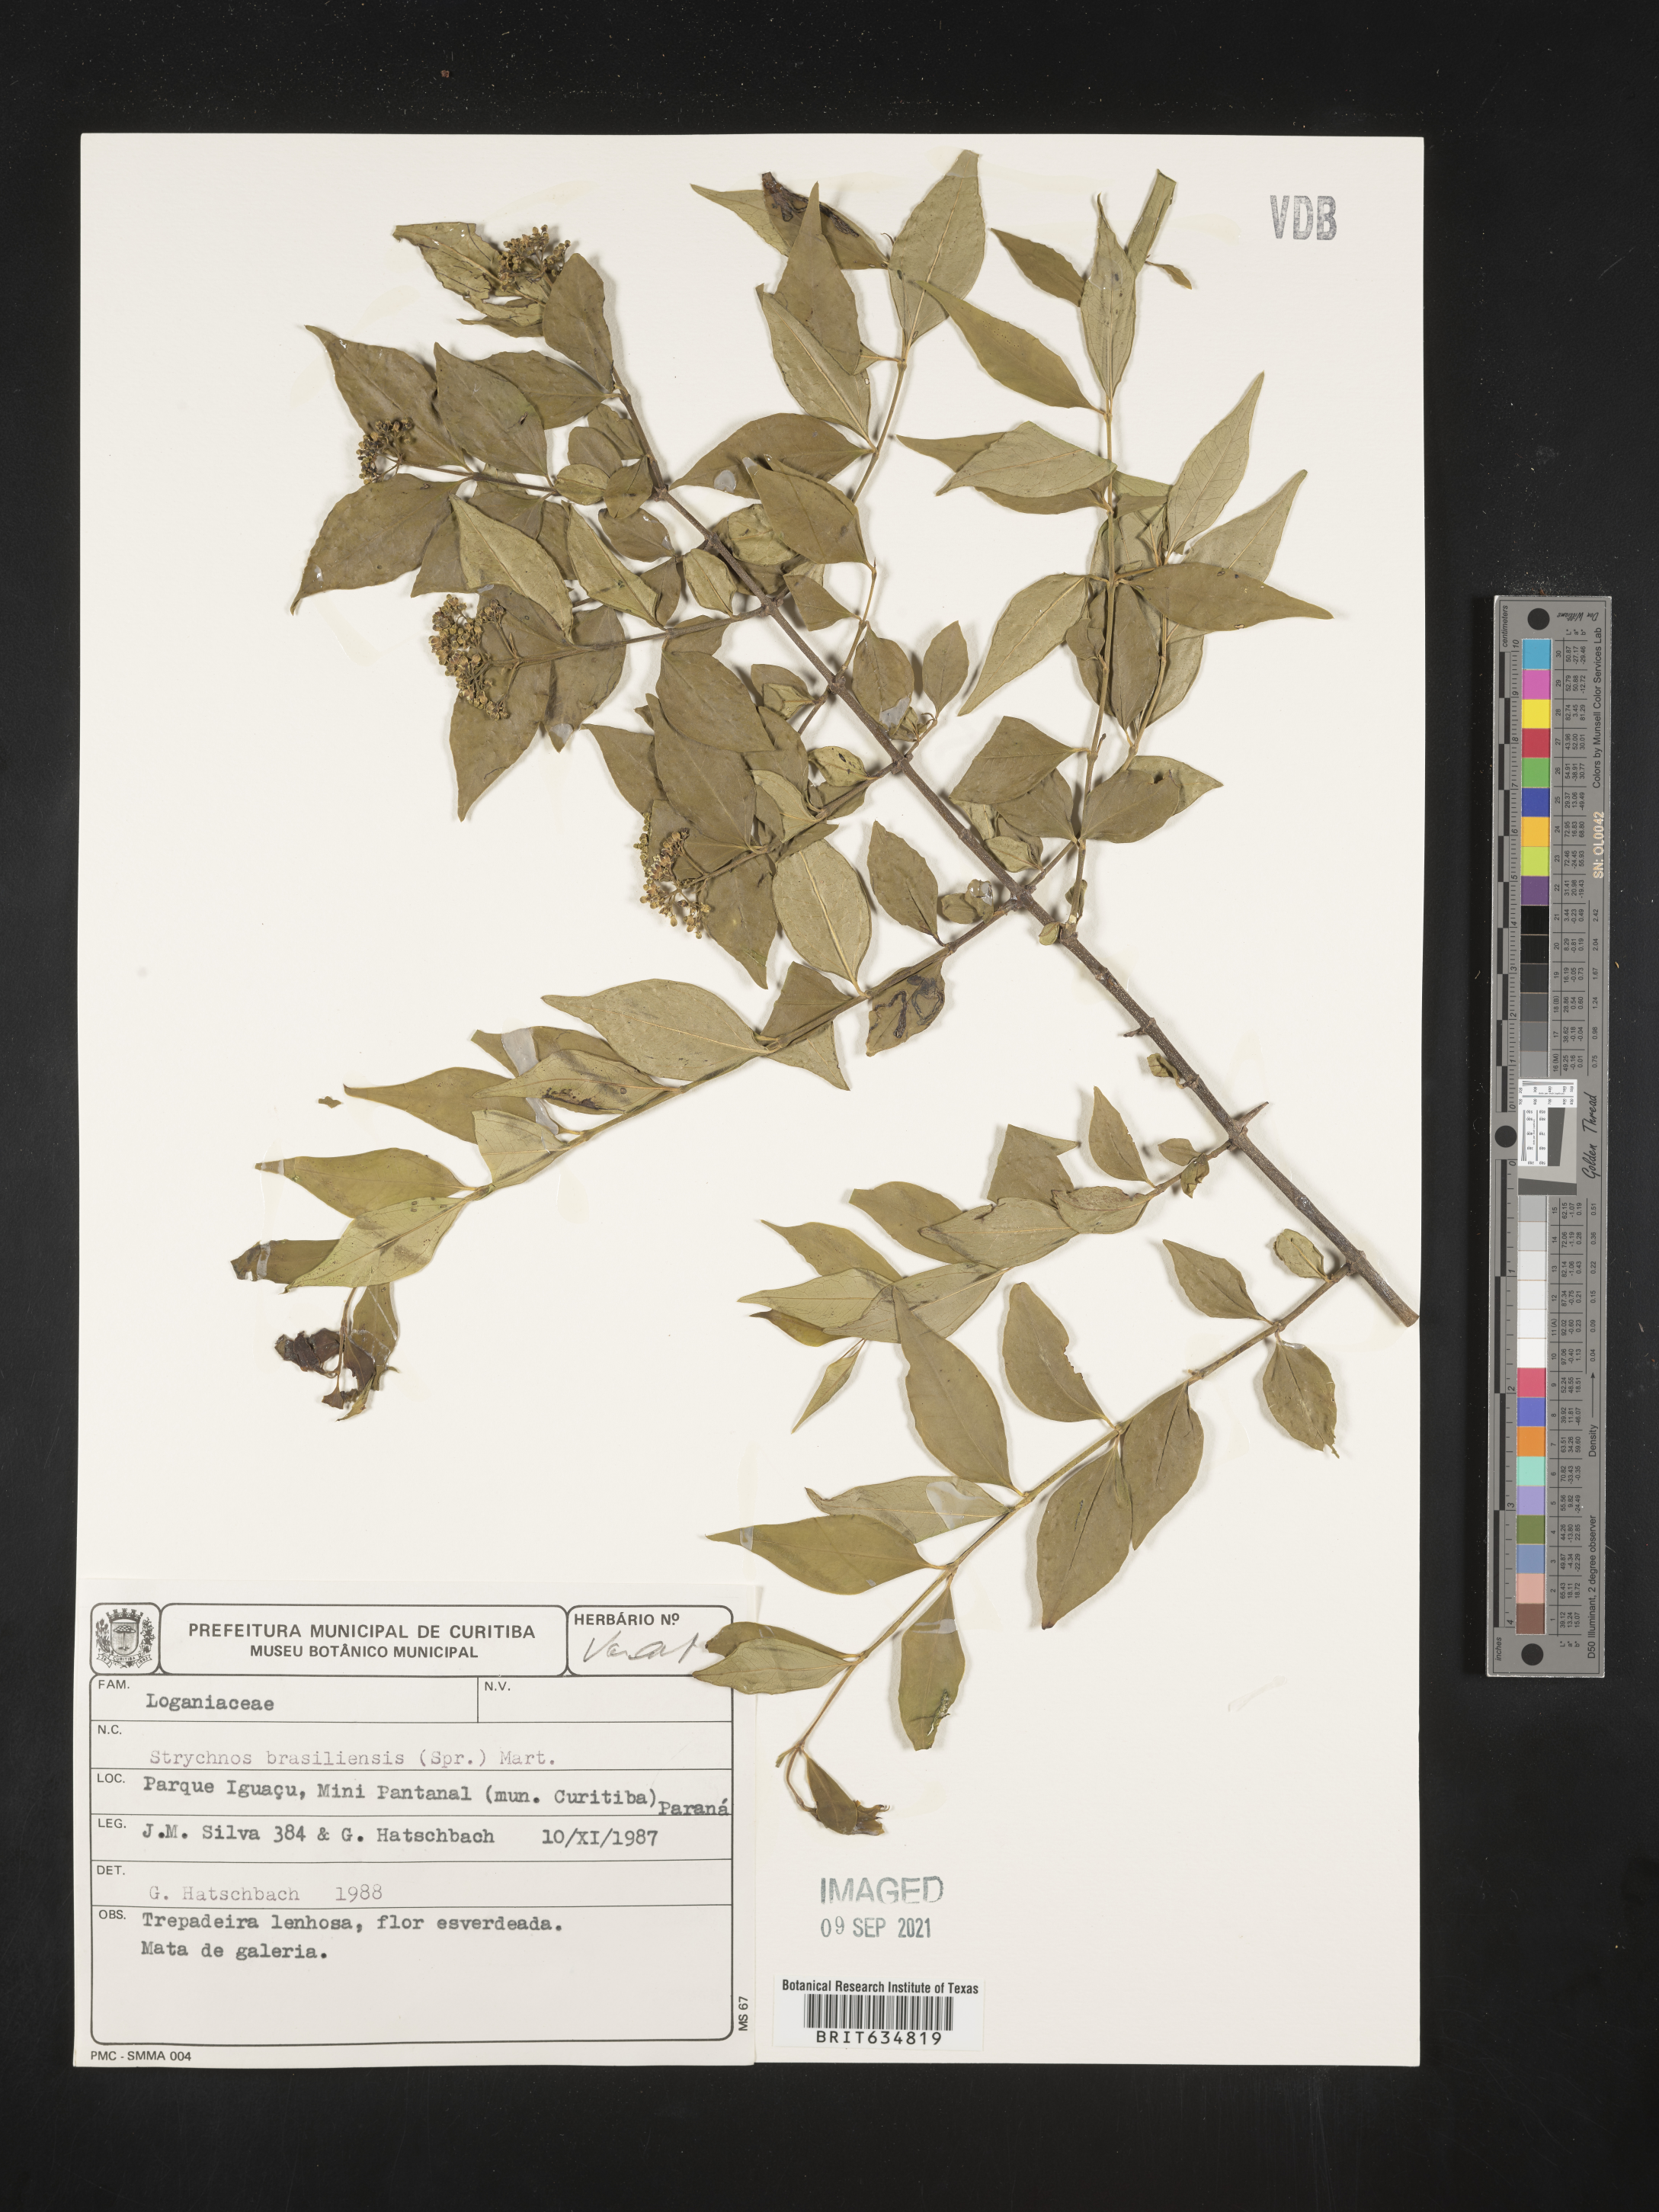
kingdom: Plantae
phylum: Tracheophyta
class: Magnoliopsida
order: Gentianales
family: Loganiaceae
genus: Strychnos
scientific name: Strychnos
